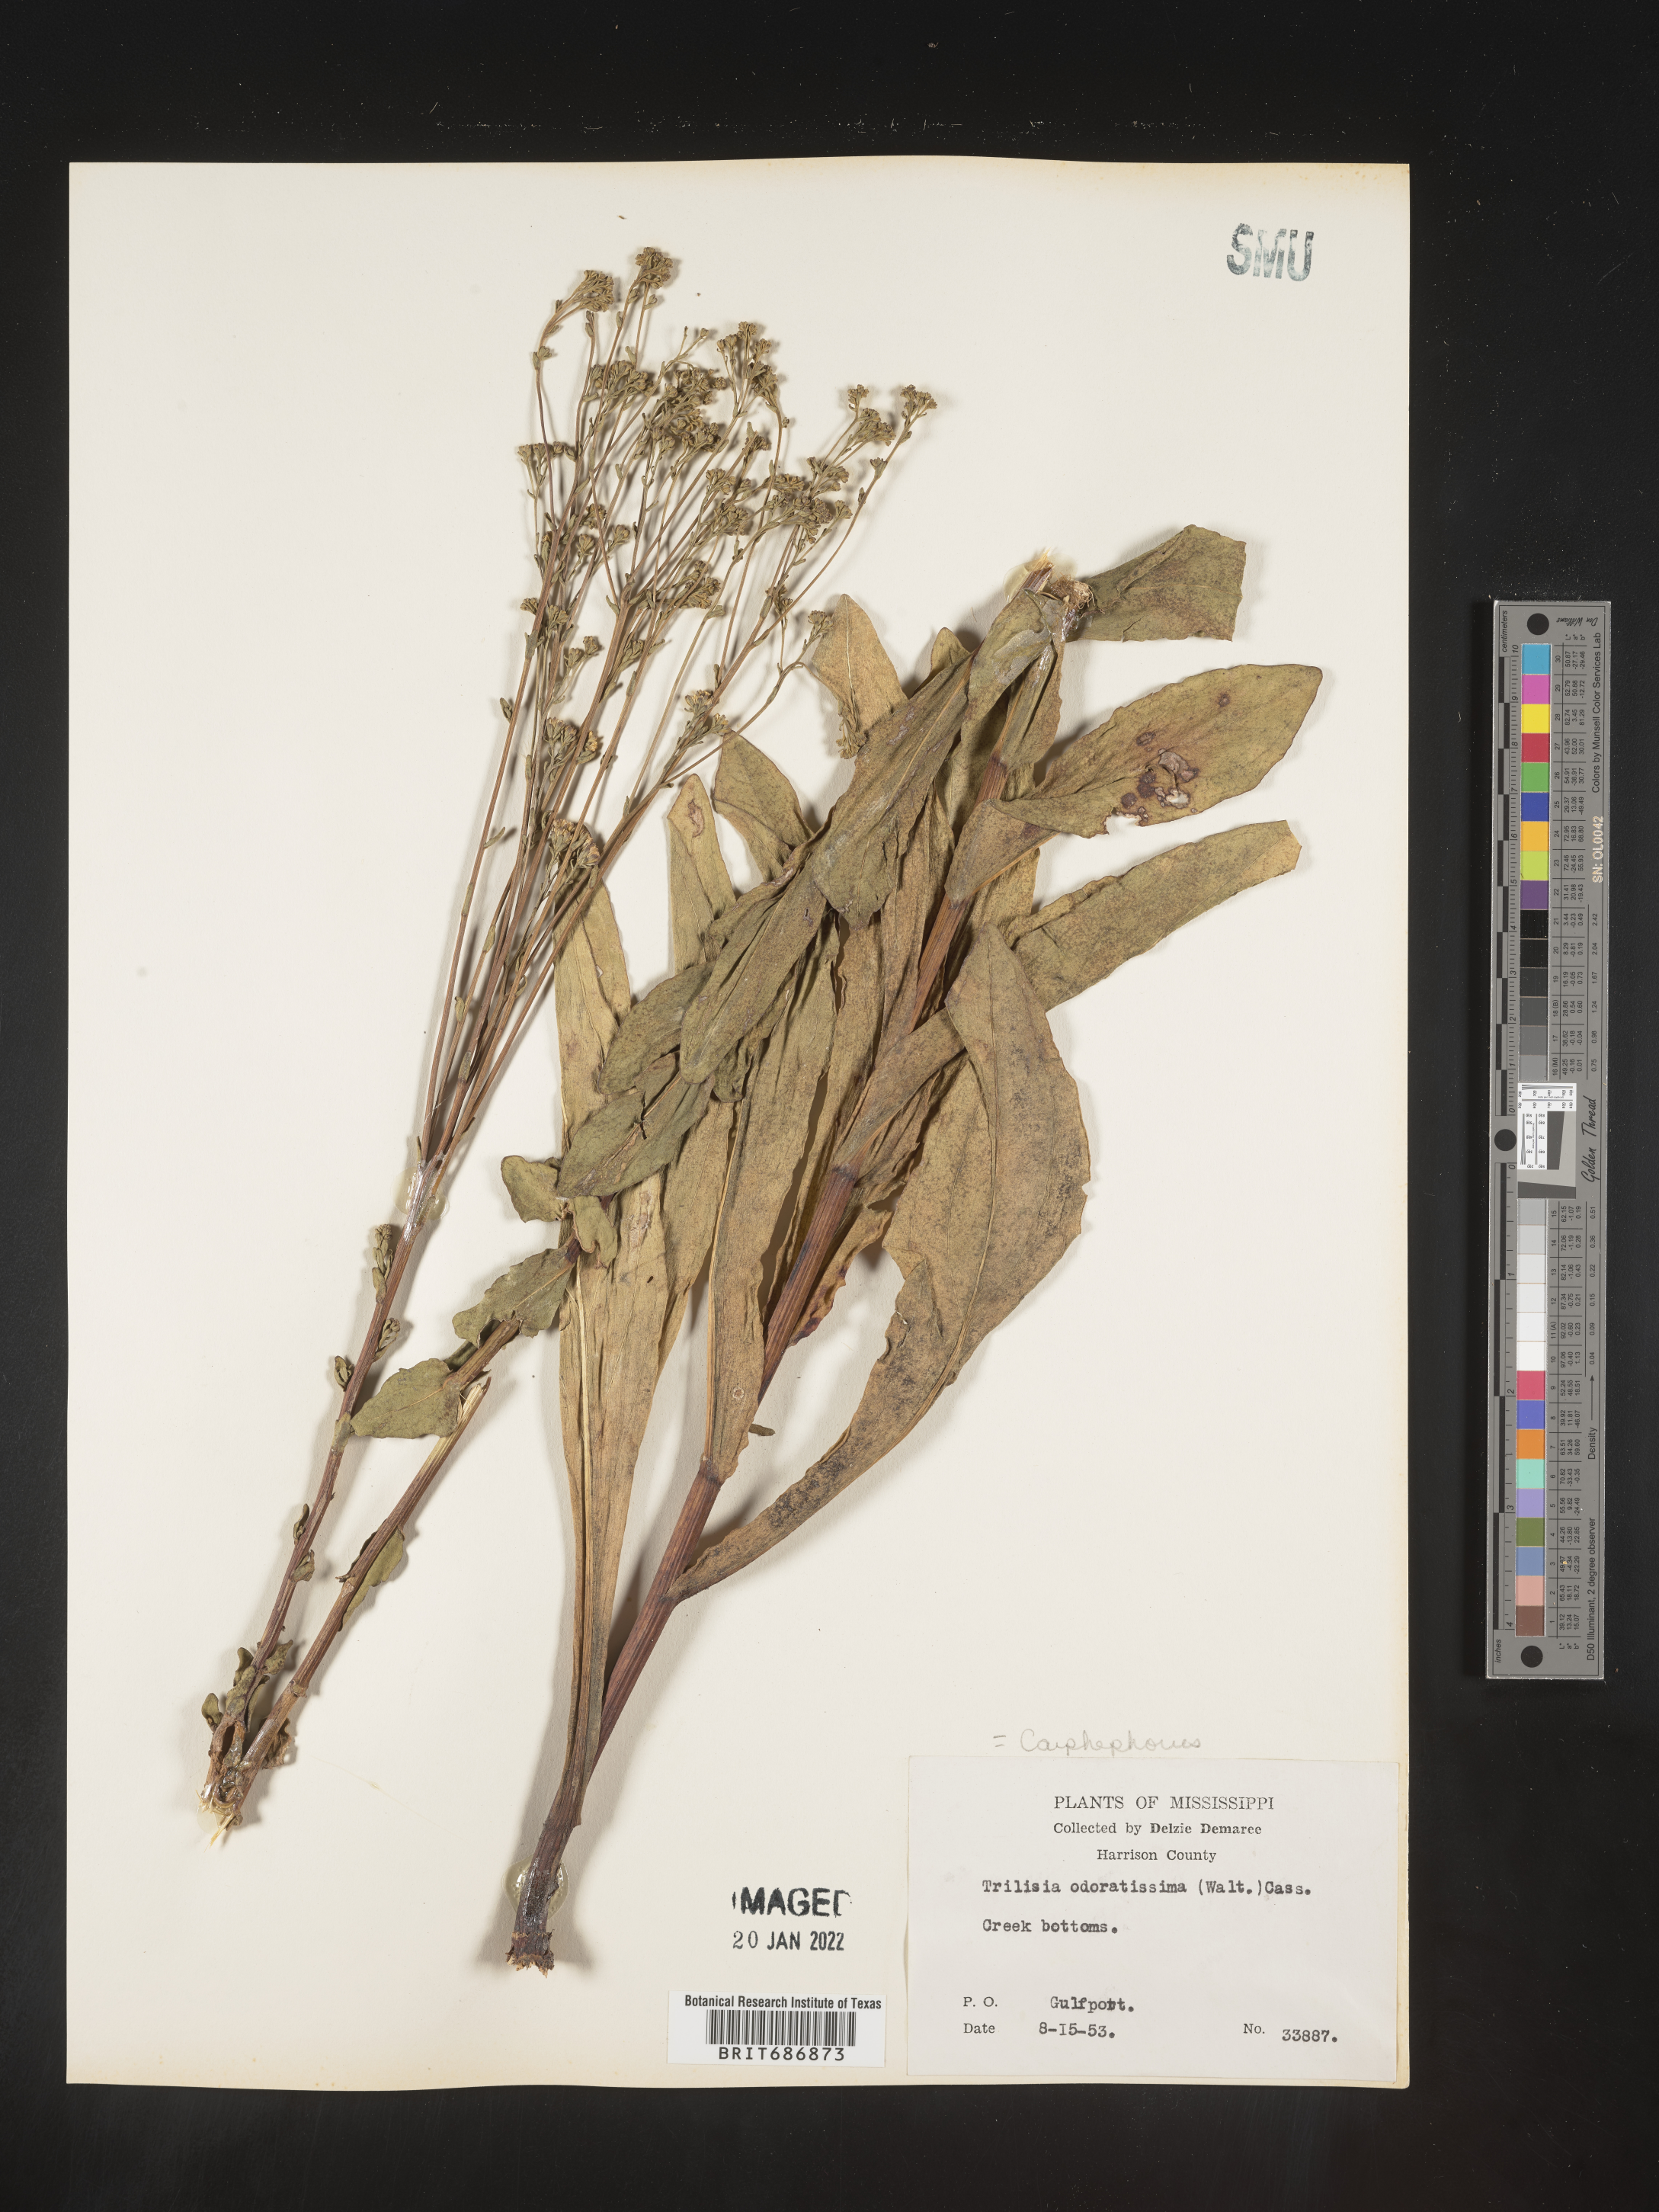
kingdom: Plantae
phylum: Tracheophyta
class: Magnoliopsida
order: Asterales
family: Asteraceae
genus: Carphephorus
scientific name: Carphephorus odoratissimus
